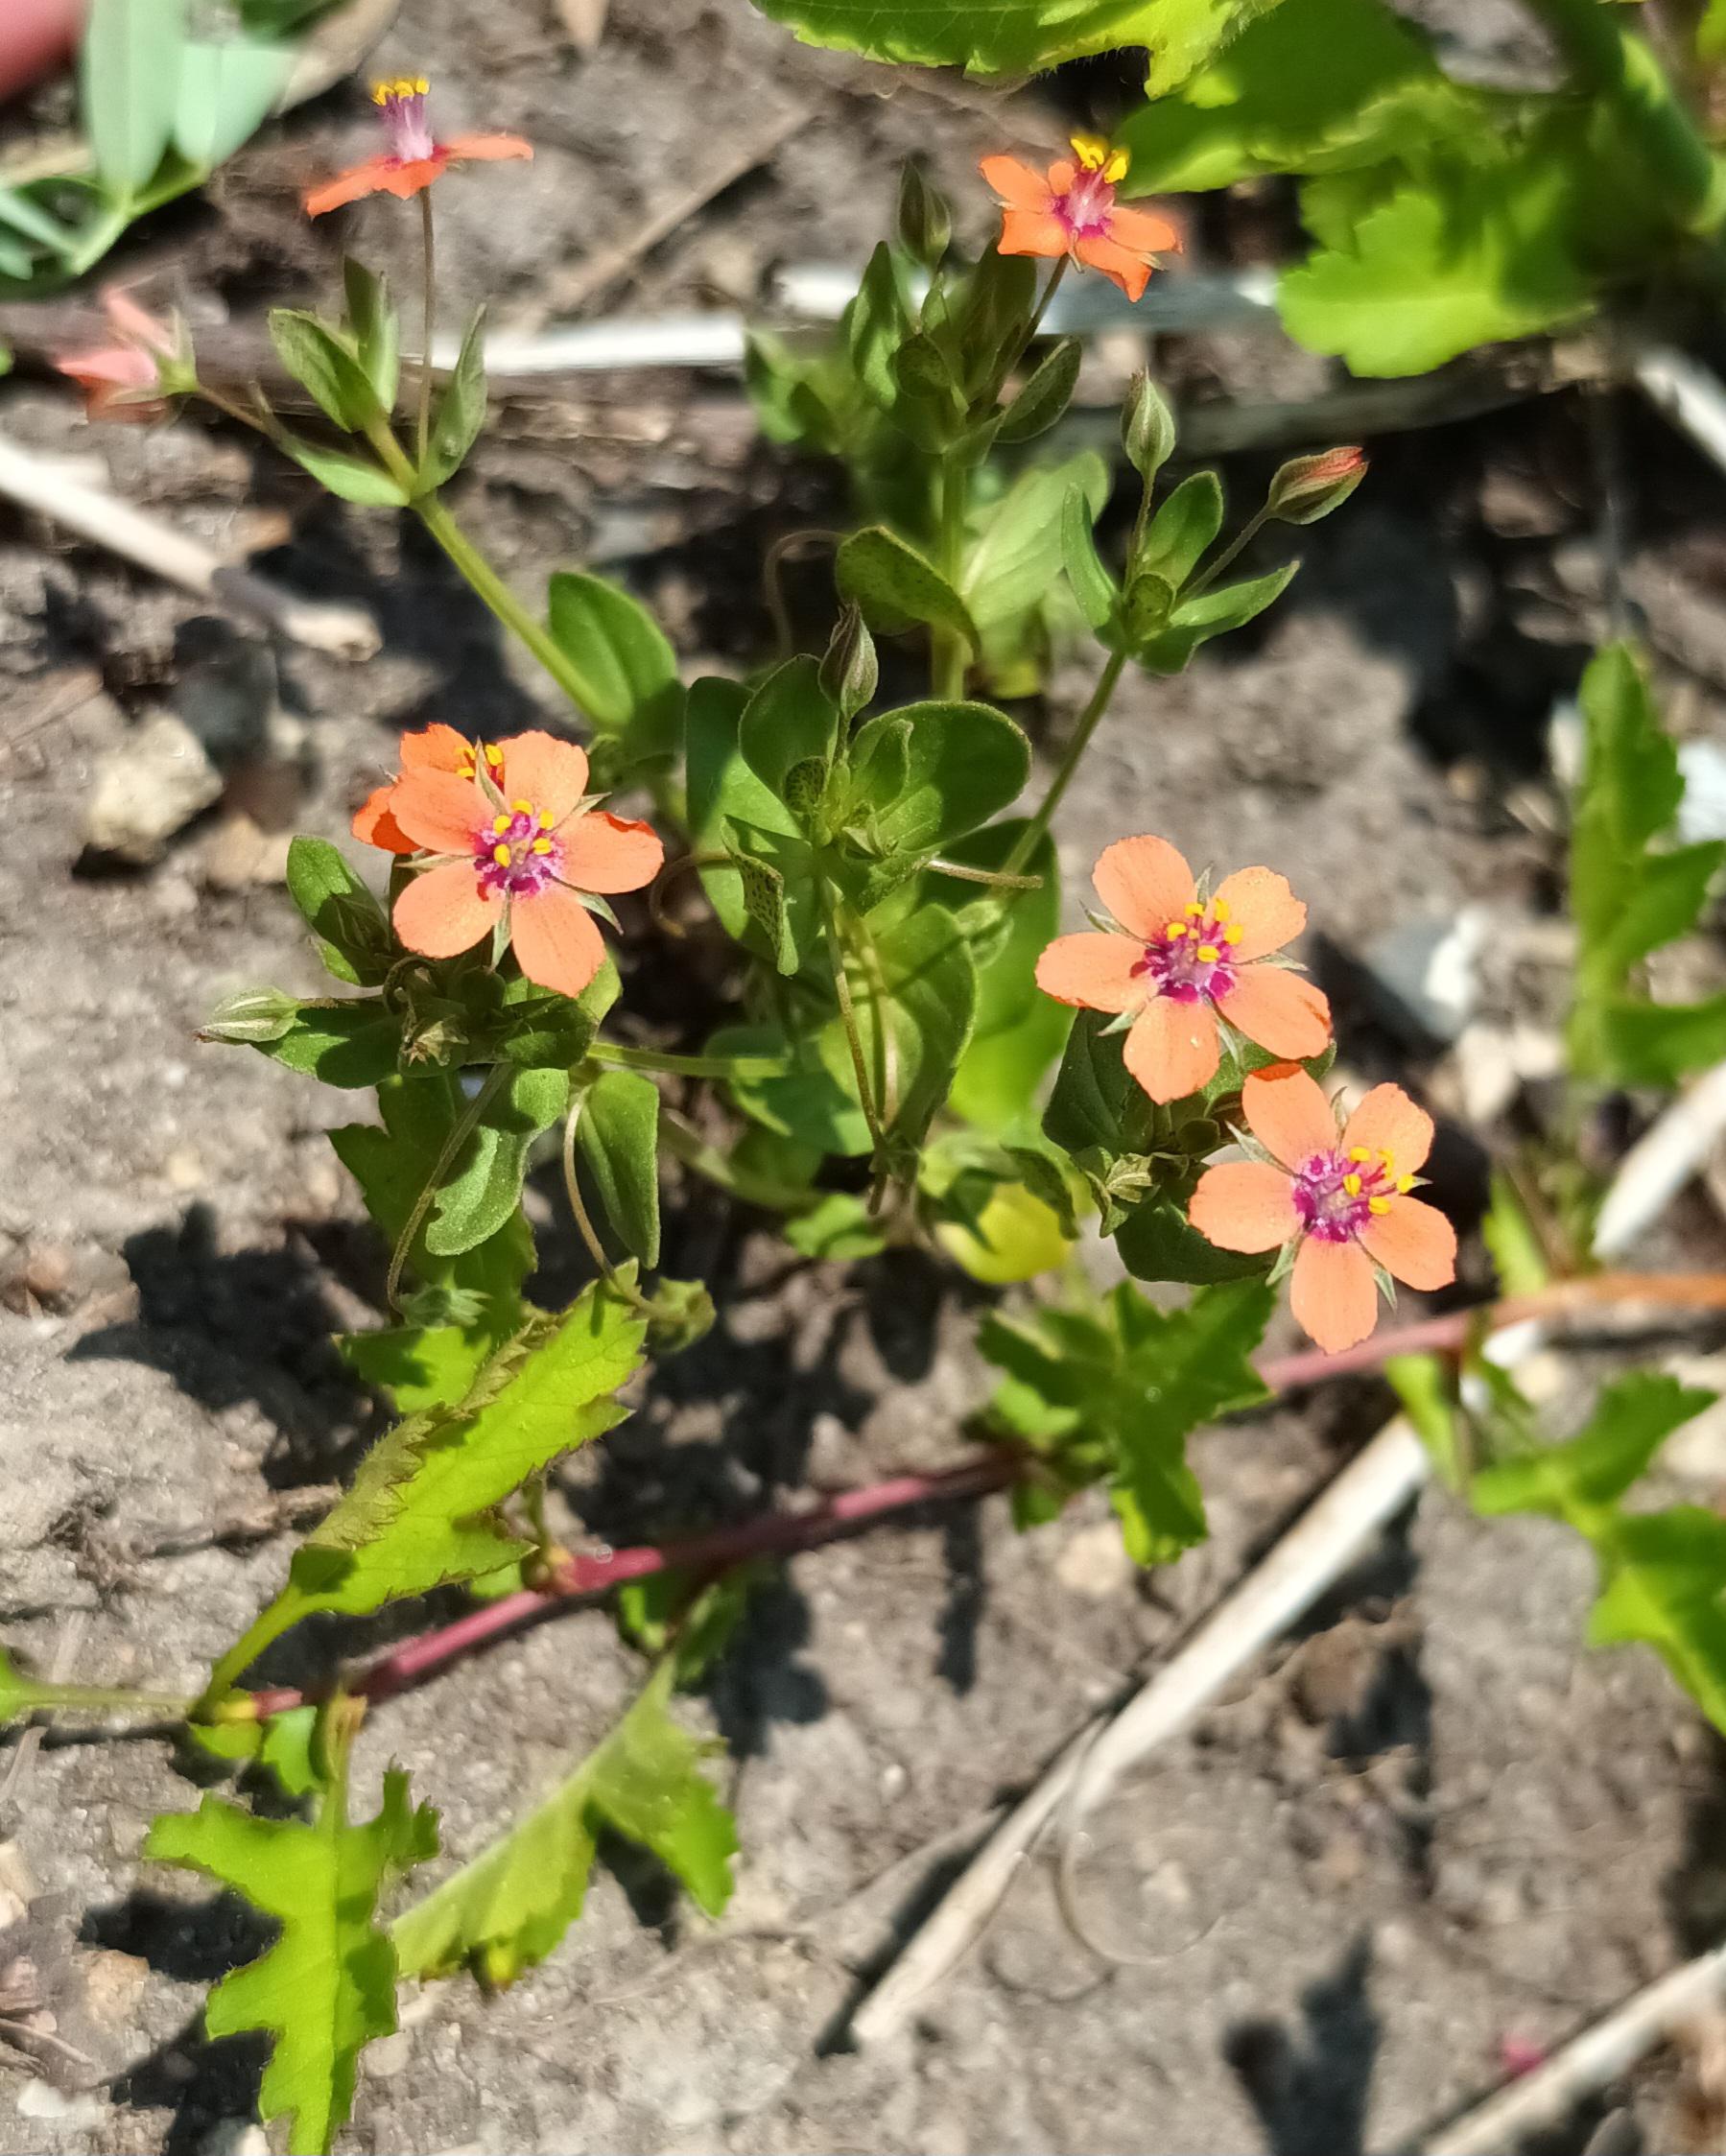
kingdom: Plantae
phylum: Tracheophyta
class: Magnoliopsida
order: Ericales
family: Primulaceae
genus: Lysimachia
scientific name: Lysimachia arvensis
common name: Rød arve
